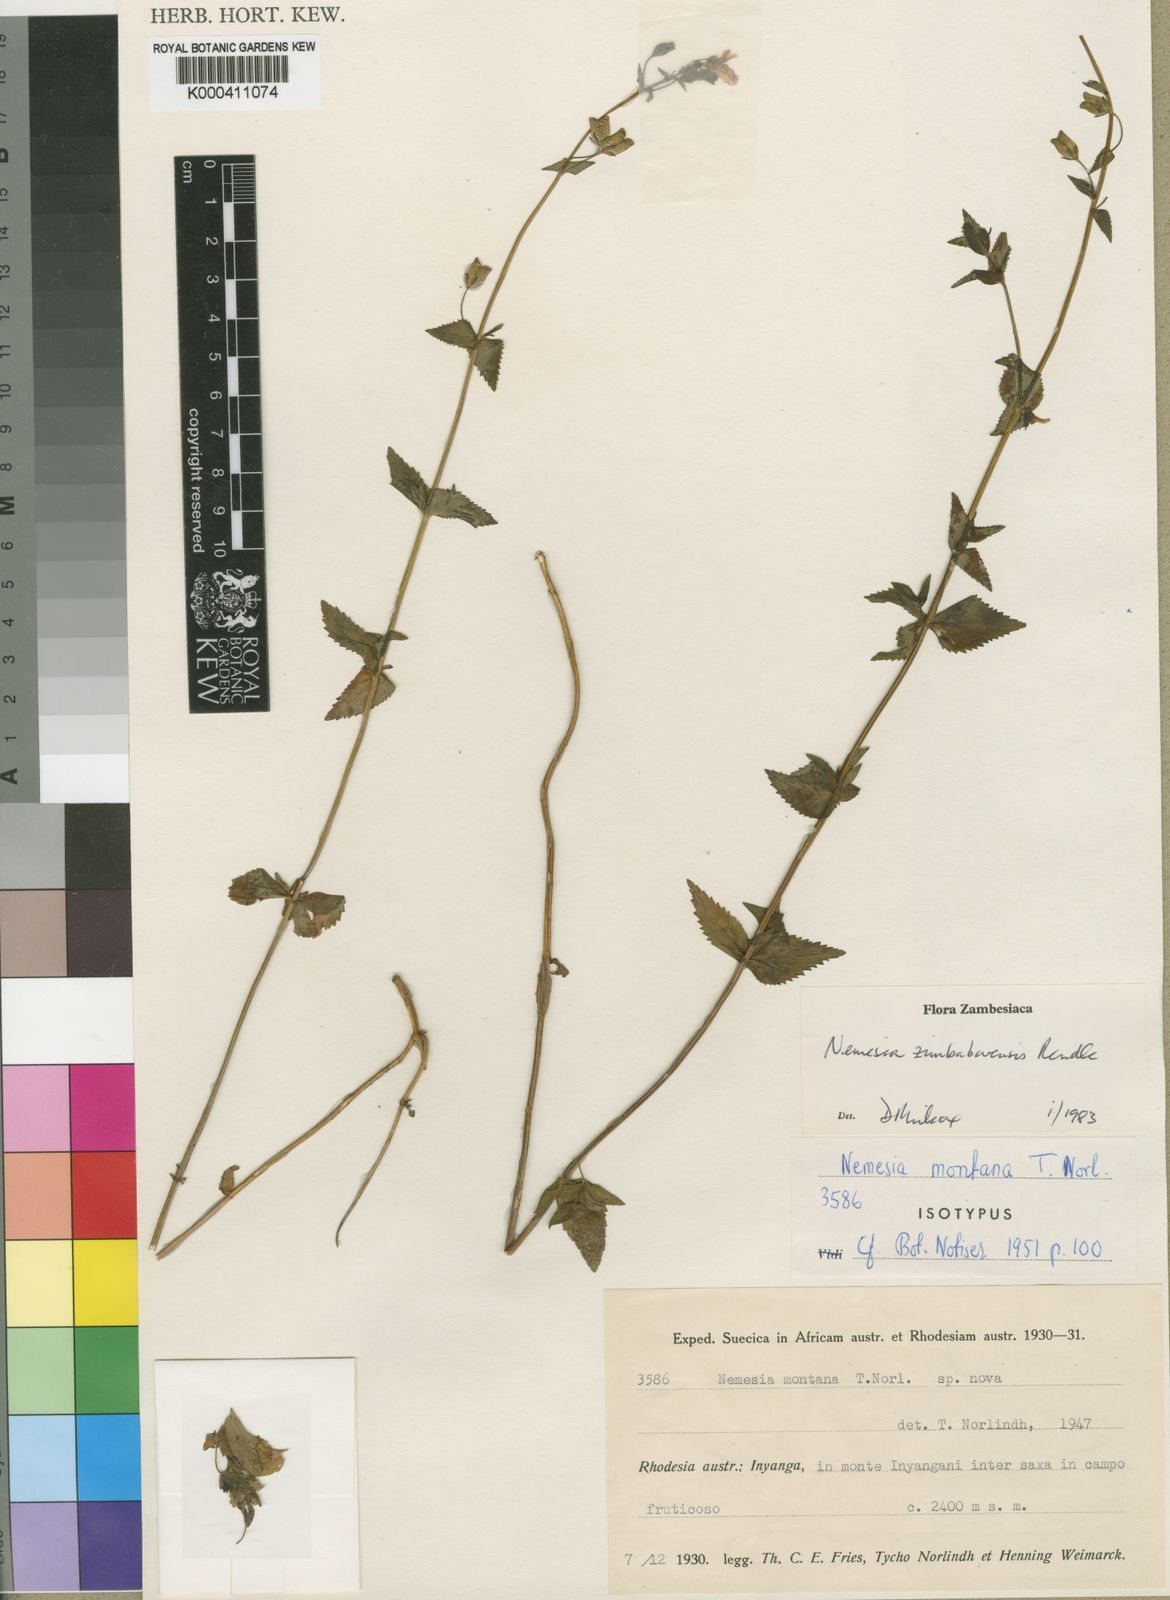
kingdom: Plantae
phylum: Tracheophyta
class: Magnoliopsida
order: Lamiales
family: Scrophulariaceae
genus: Nemesia
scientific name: Nemesia zimbabwensis
